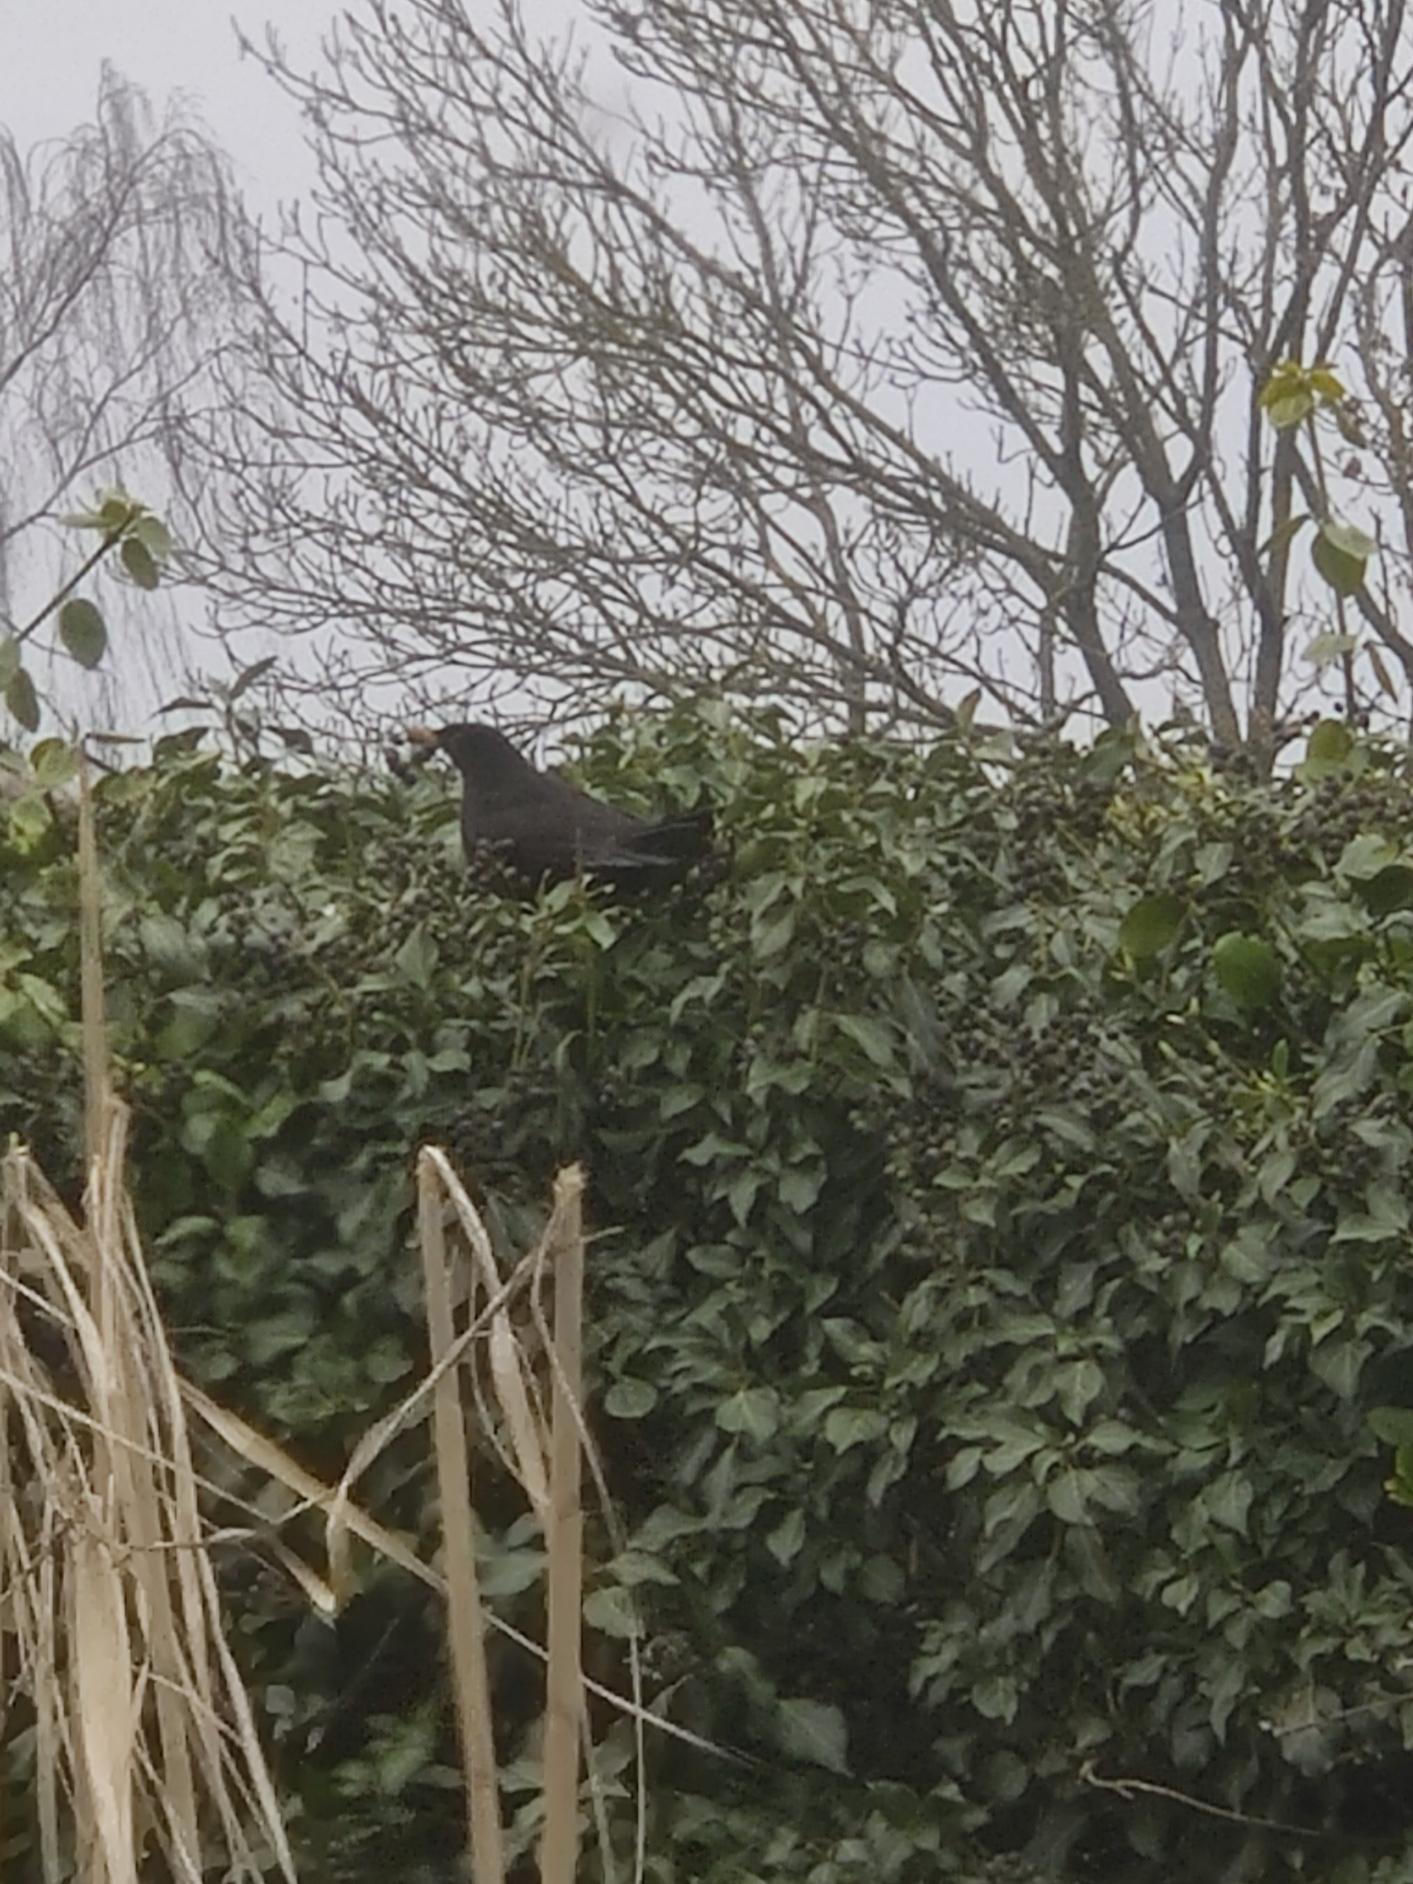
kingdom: Animalia
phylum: Chordata
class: Aves
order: Passeriformes
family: Turdidae
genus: Turdus
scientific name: Turdus merula
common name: Solsort
